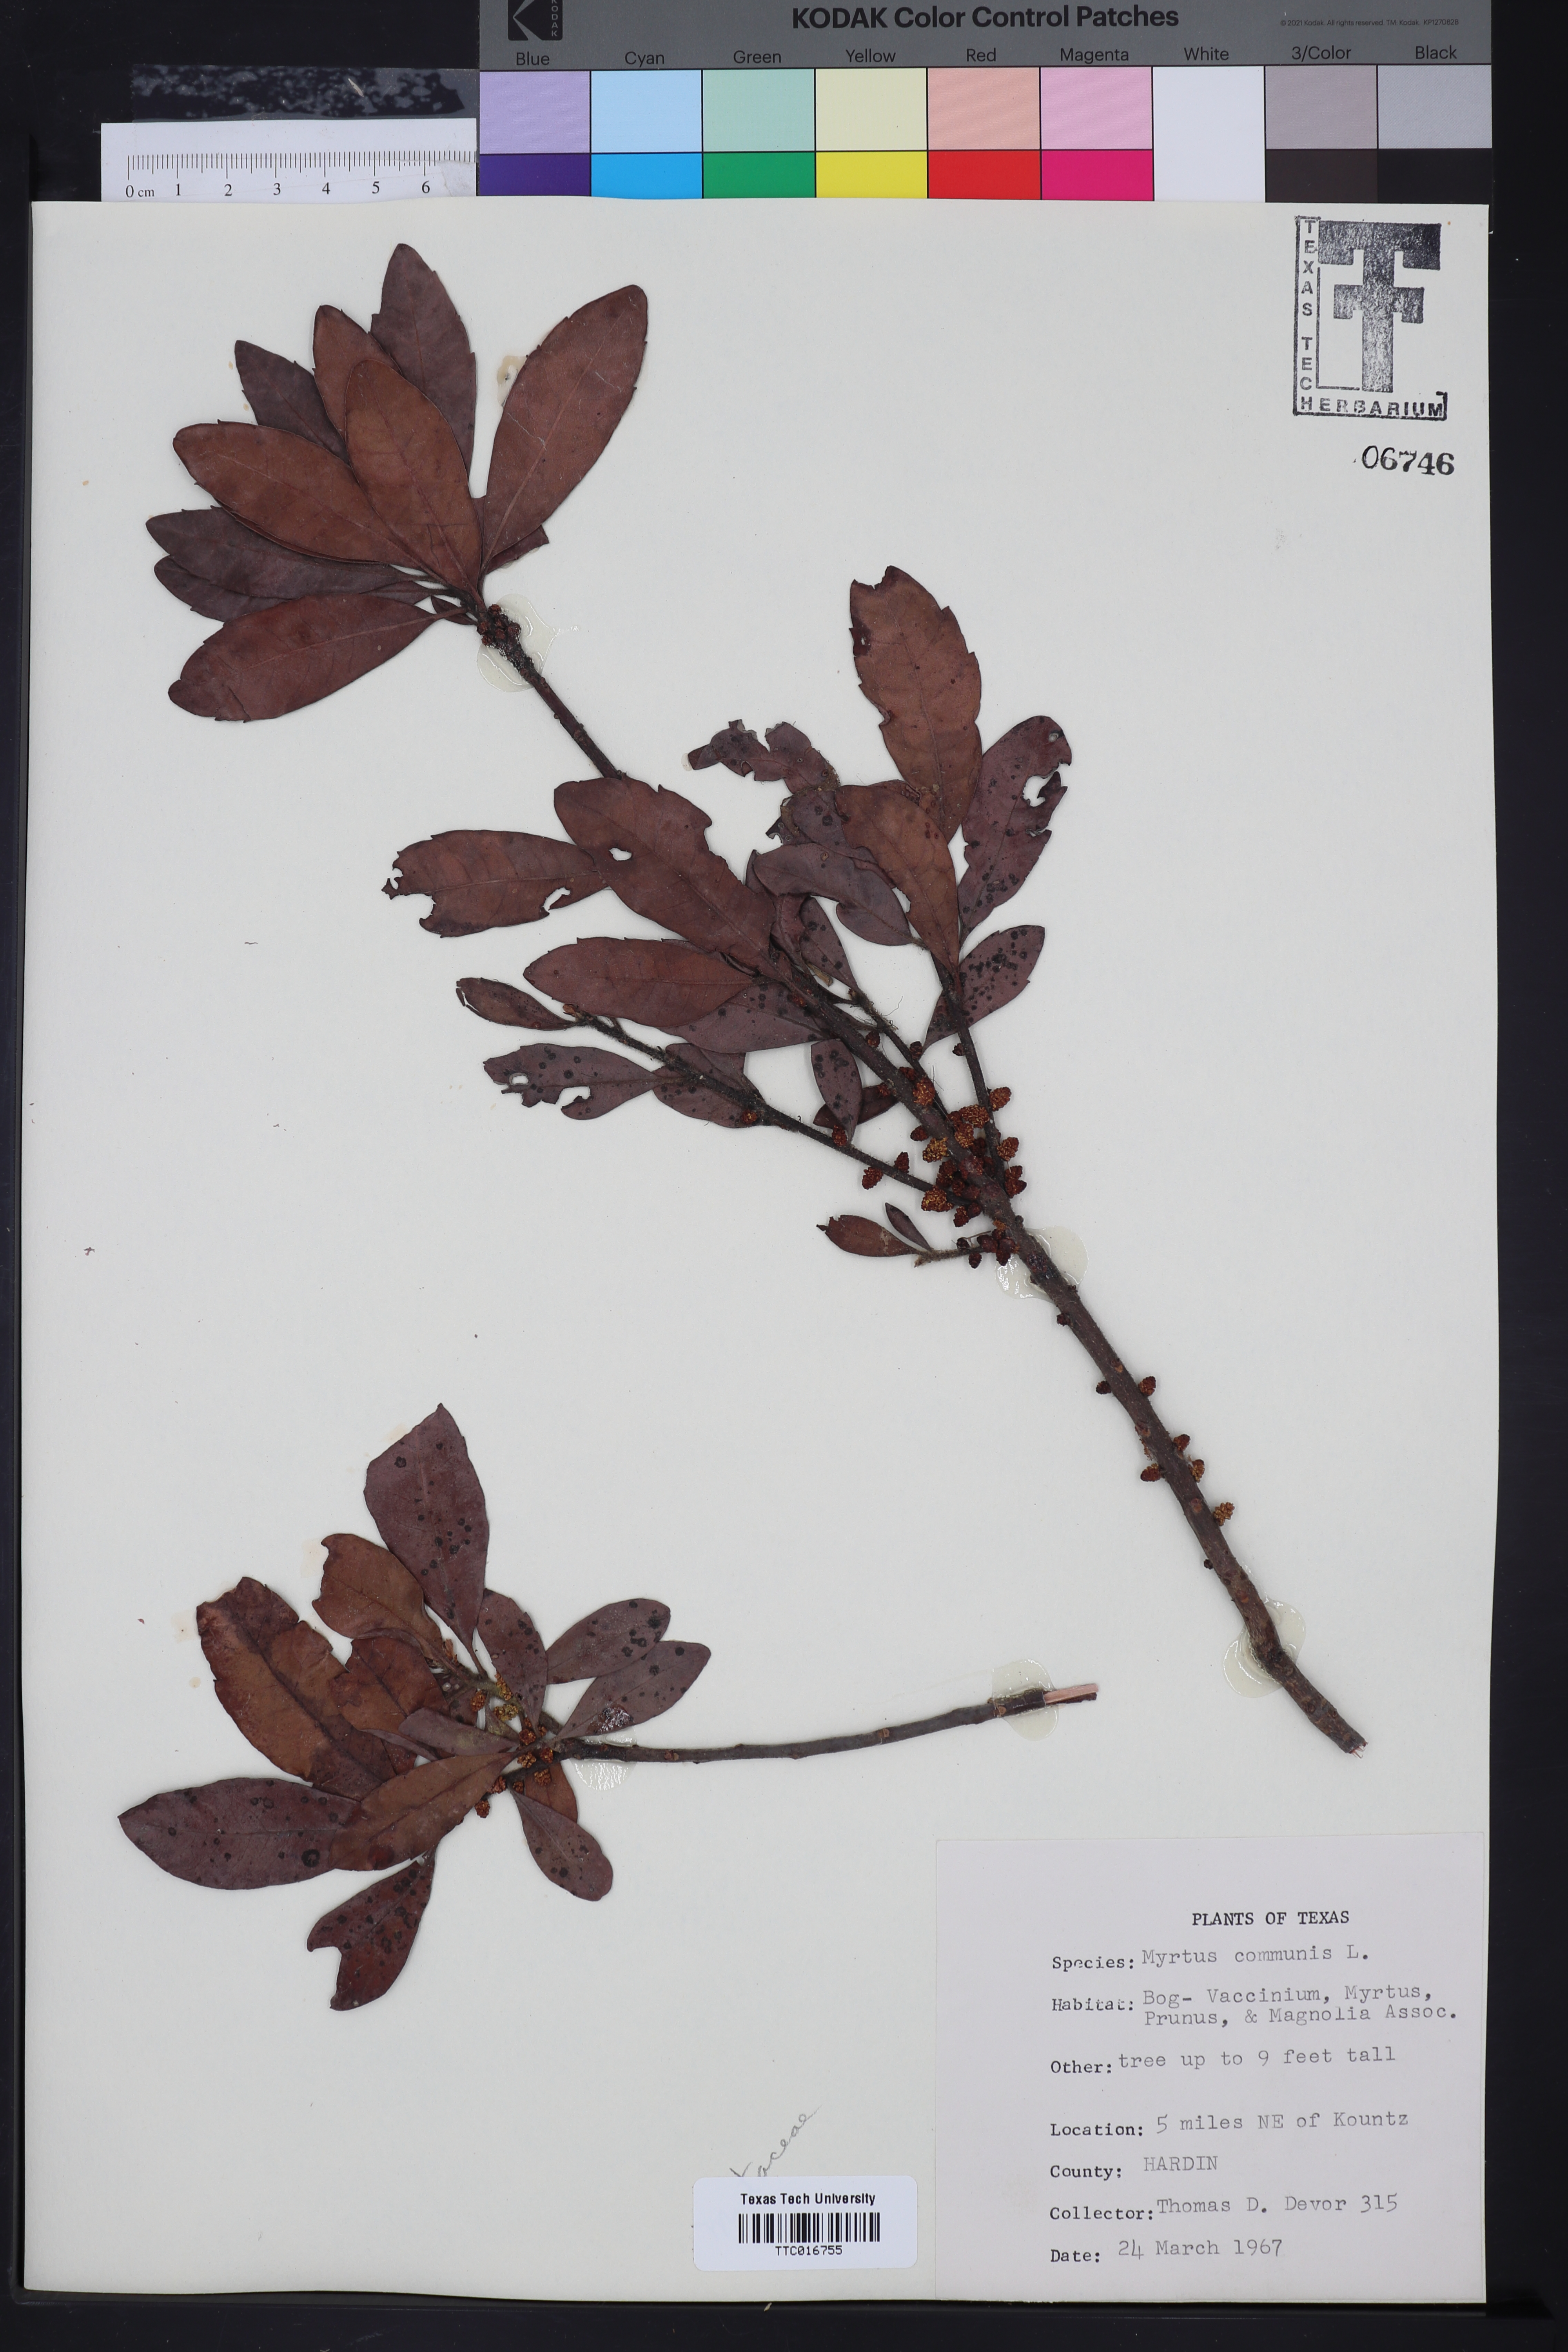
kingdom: Plantae
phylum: Tracheophyta
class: Magnoliopsida
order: Myrtales
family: Myrtaceae
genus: Myrtus
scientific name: Myrtus communis
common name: Myrtle
